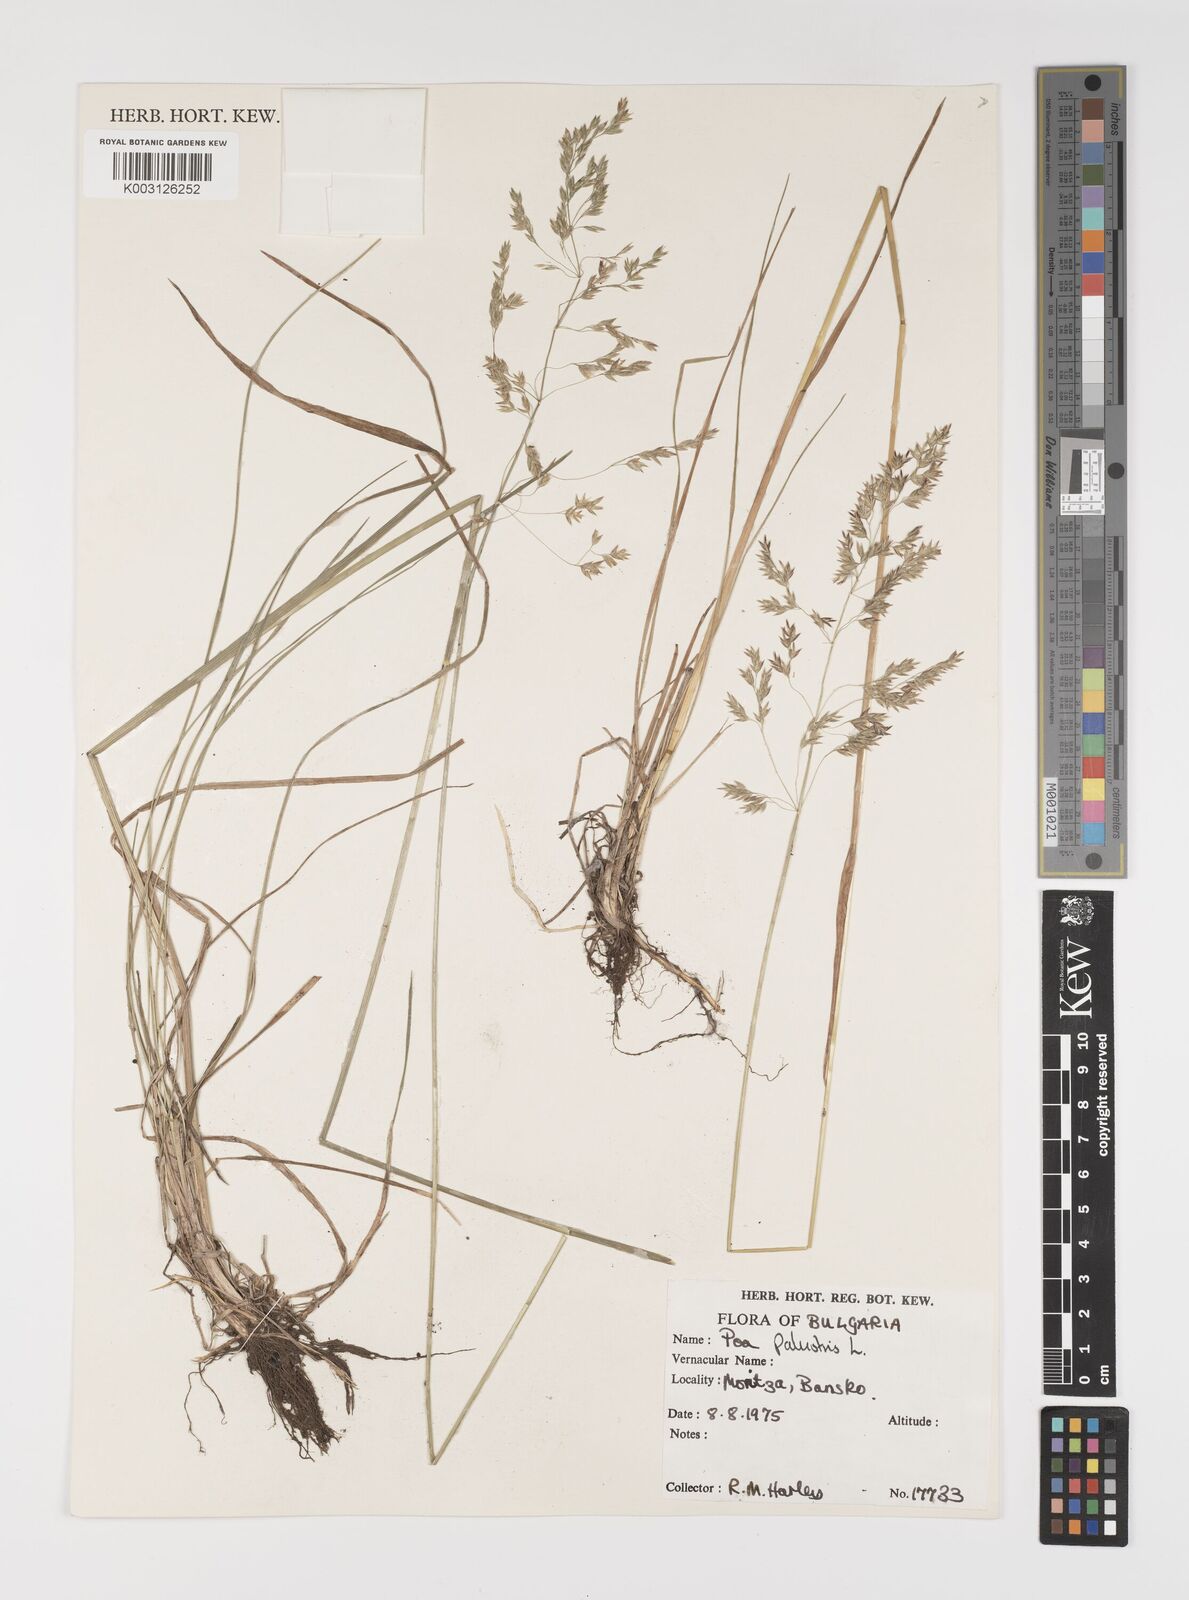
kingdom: Plantae
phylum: Tracheophyta
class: Liliopsida
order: Poales
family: Poaceae
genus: Poa
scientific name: Poa palustris
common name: Swamp meadow-grass
